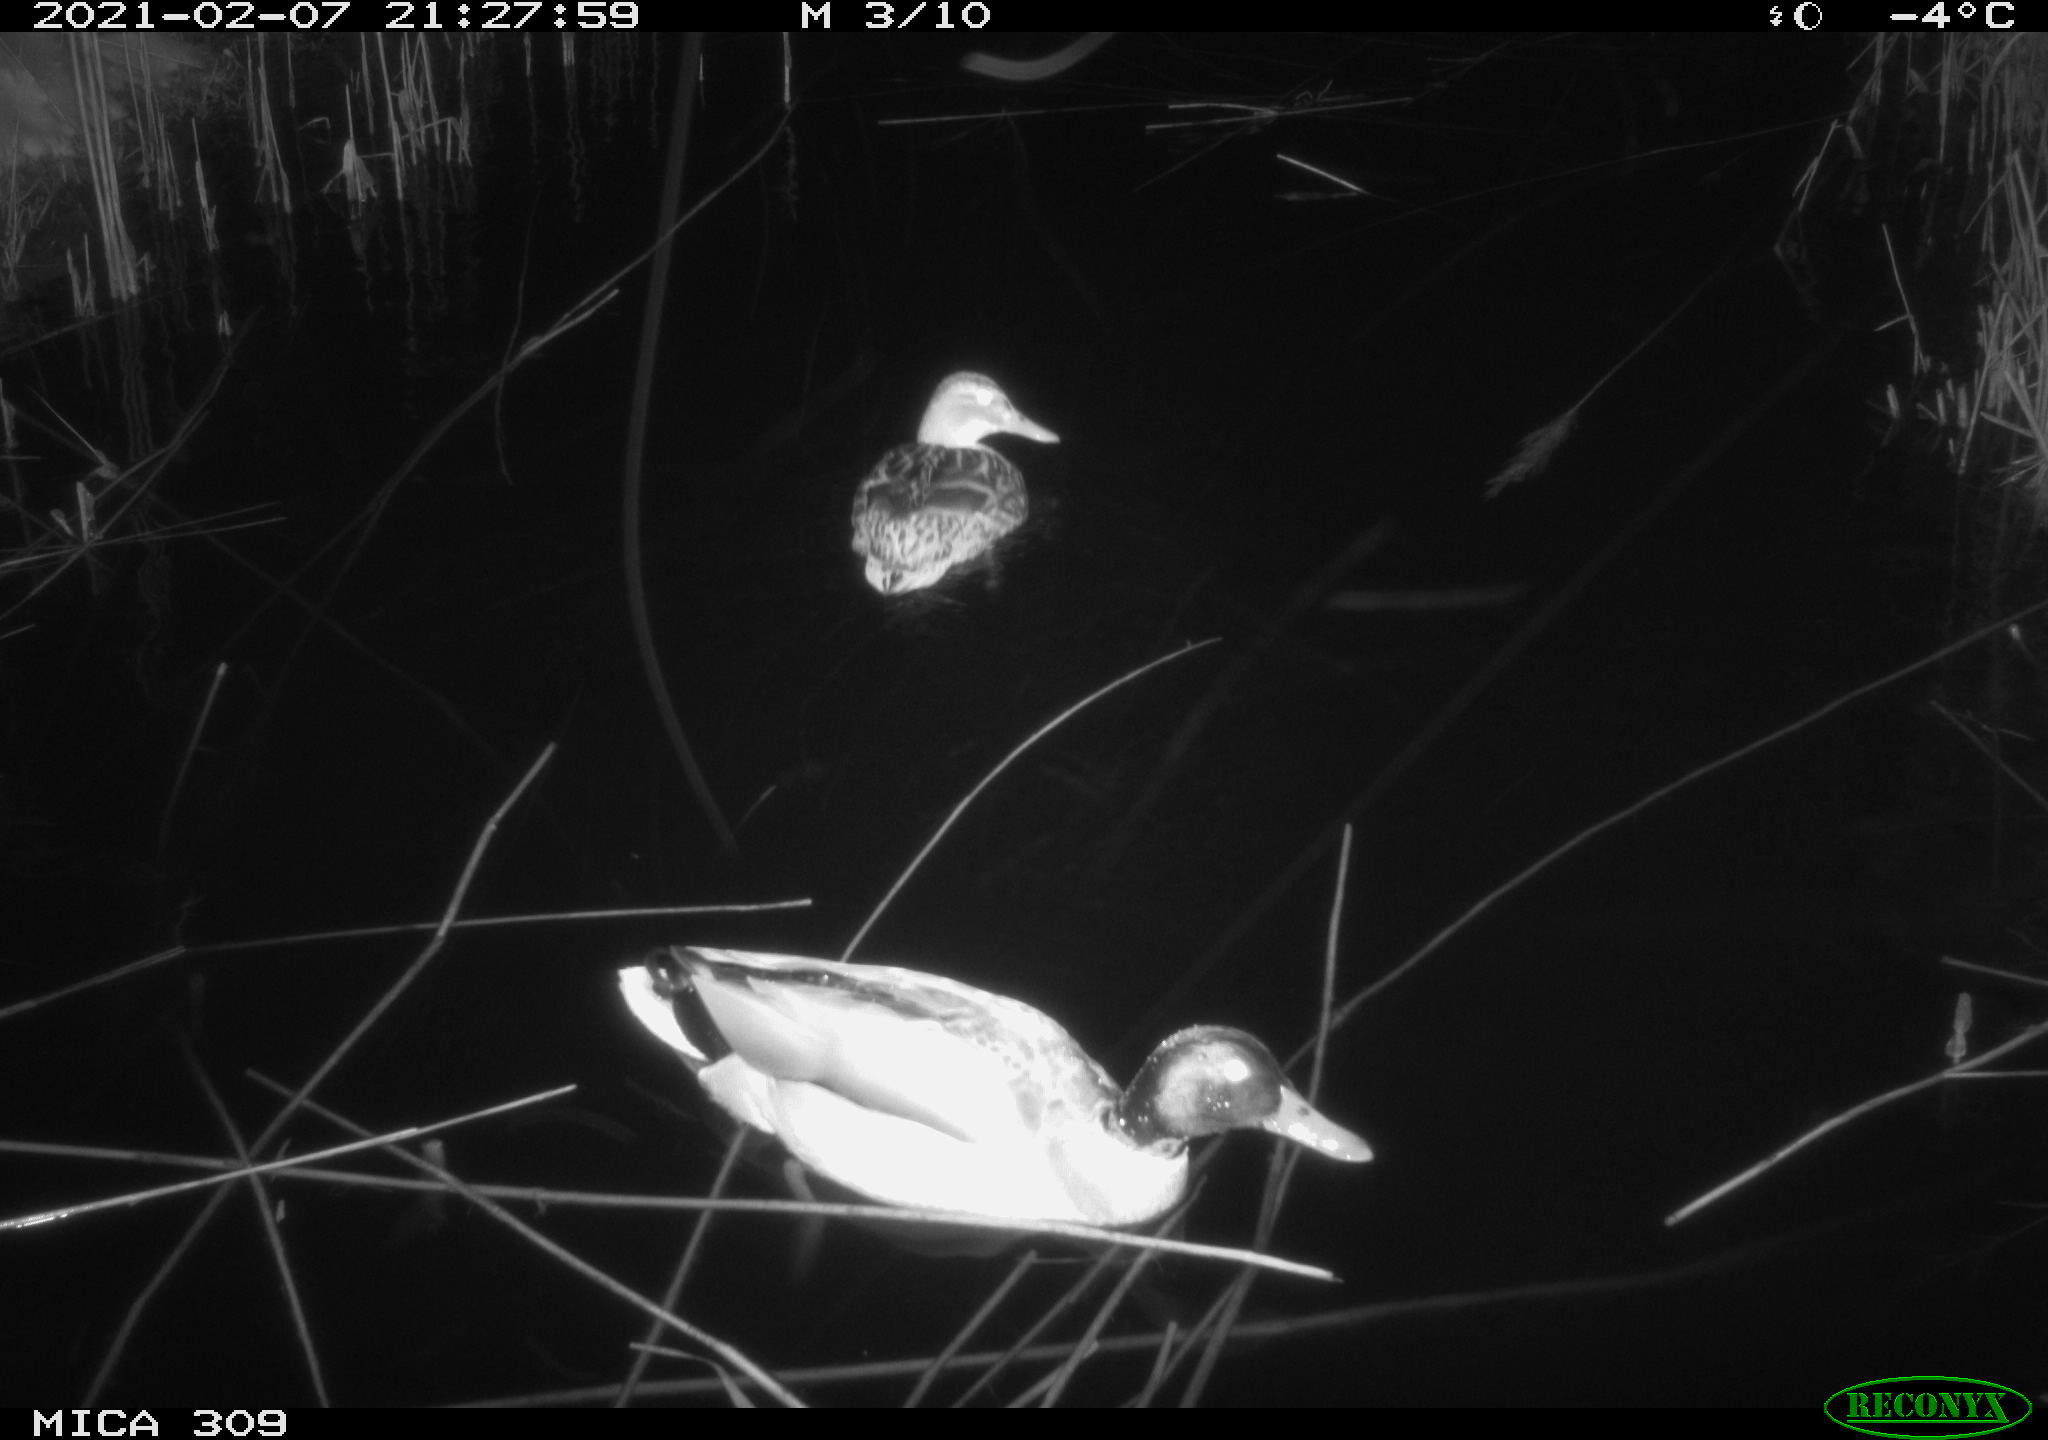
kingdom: Animalia
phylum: Chordata
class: Aves
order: Anseriformes
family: Anatidae
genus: Anas
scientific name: Anas platyrhynchos
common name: Mallard
